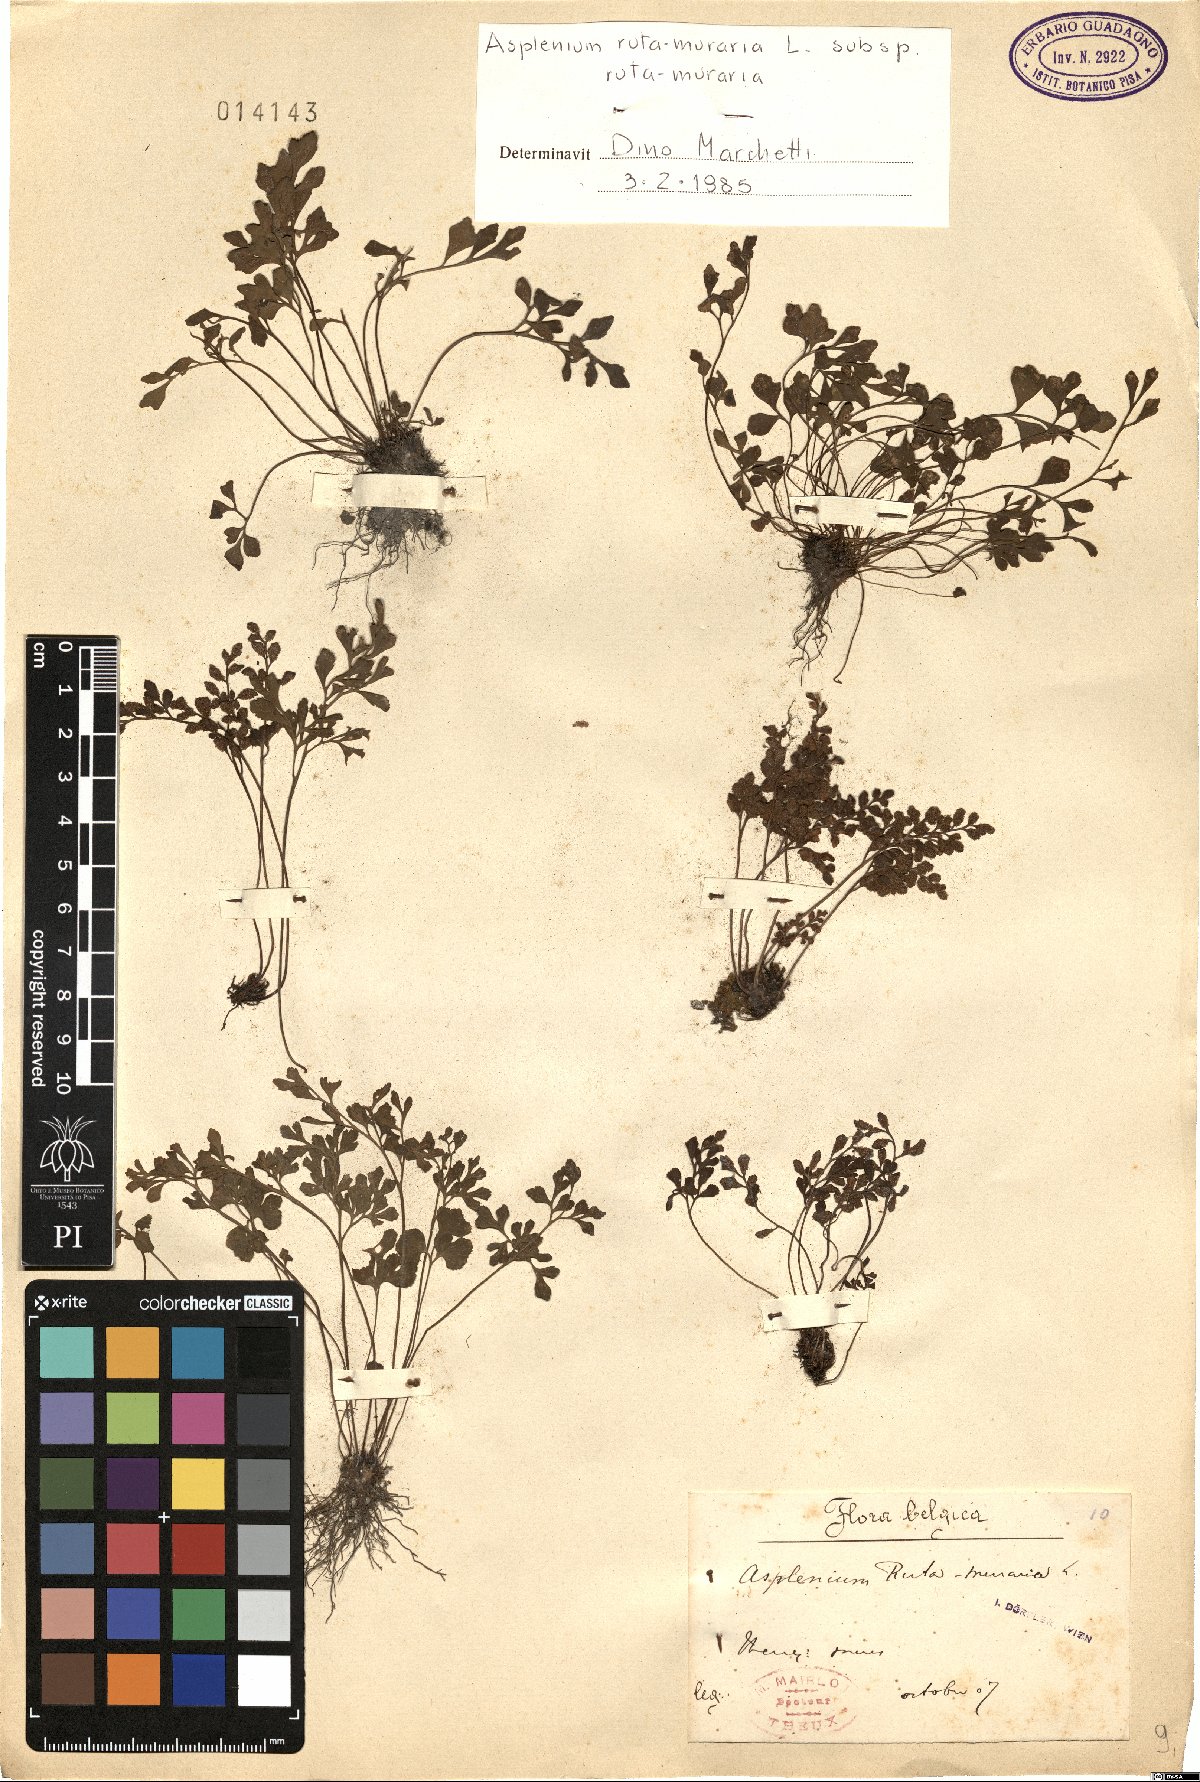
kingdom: Plantae
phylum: Tracheophyta
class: Polypodiopsida
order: Polypodiales
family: Aspleniaceae
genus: Asplenium
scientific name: Asplenium ruta-muraria
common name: Wall-rue
